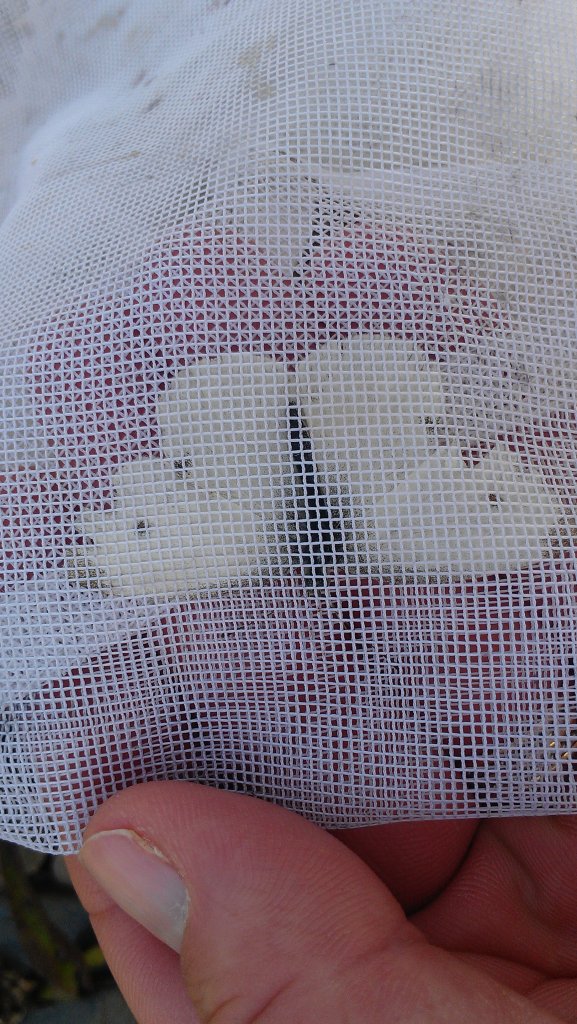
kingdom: Animalia
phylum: Arthropoda
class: Insecta
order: Lepidoptera
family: Pieridae
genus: Pieris
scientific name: Pieris rapae
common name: Cabbage White
